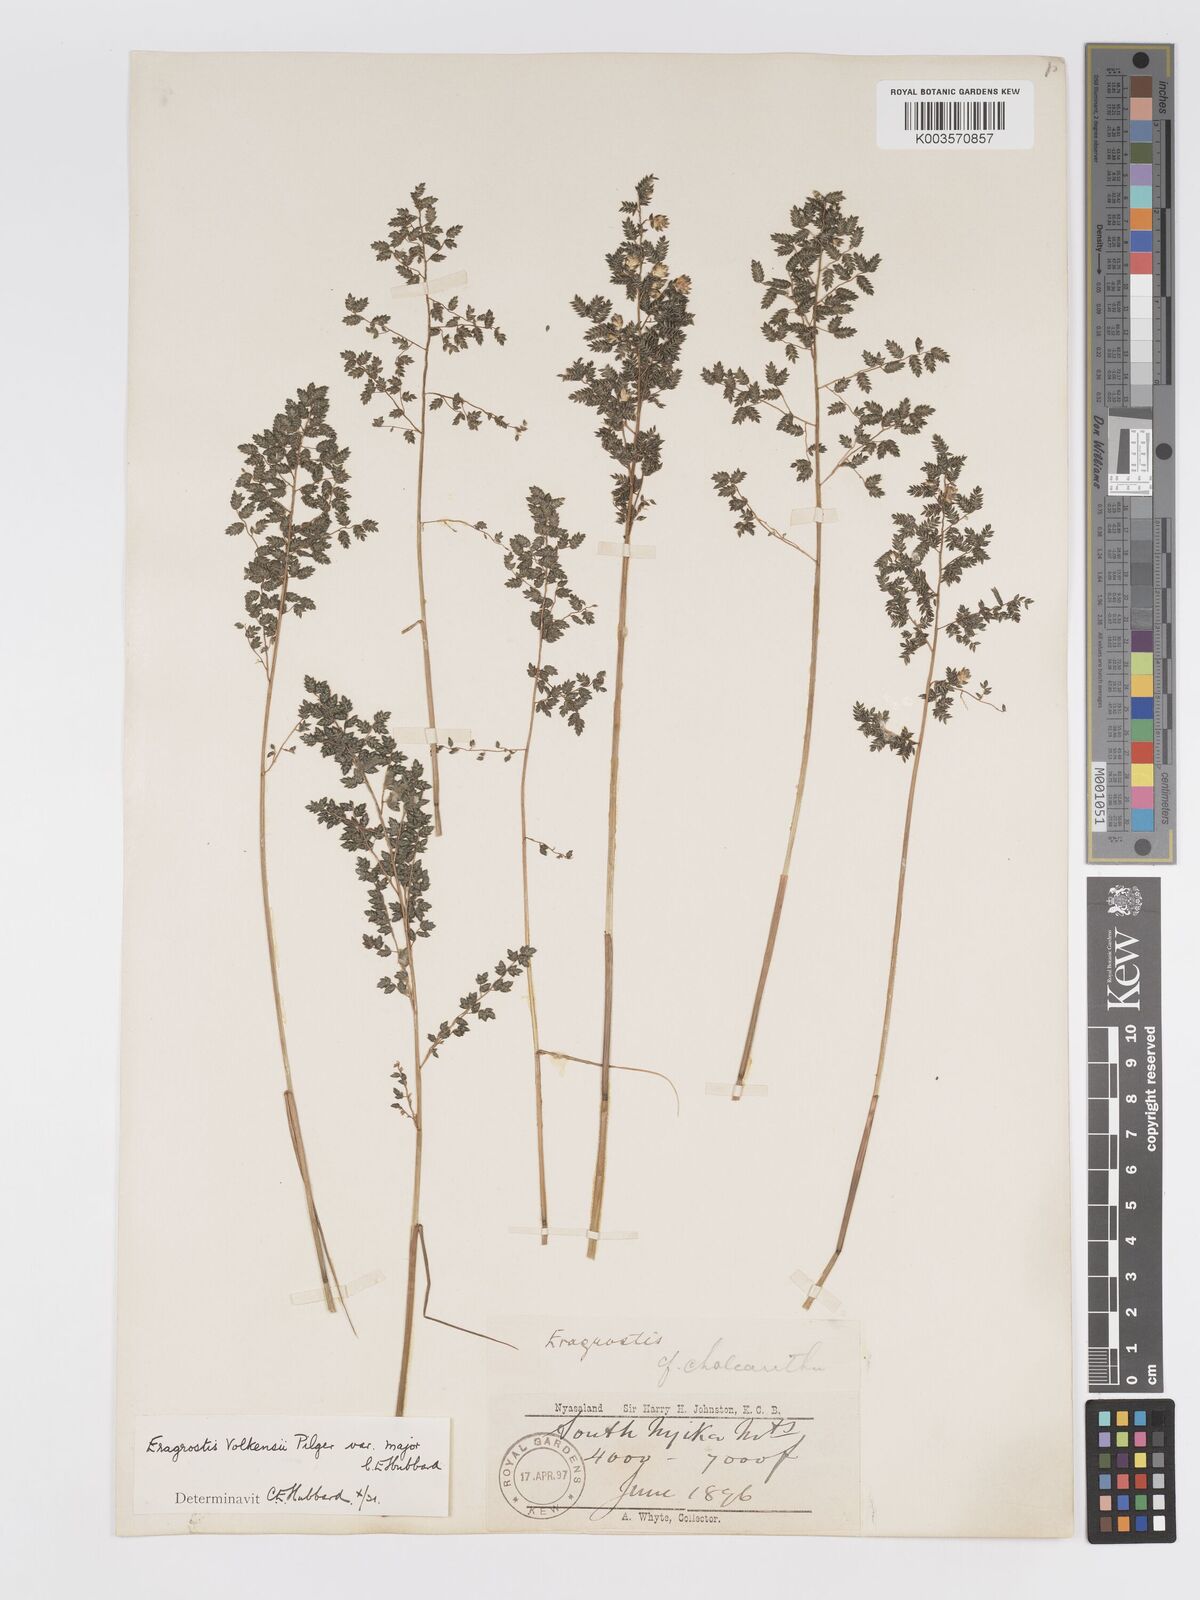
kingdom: Plantae
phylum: Tracheophyta
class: Liliopsida
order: Poales
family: Poaceae
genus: Eragrostis
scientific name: Eragrostis volkensii
